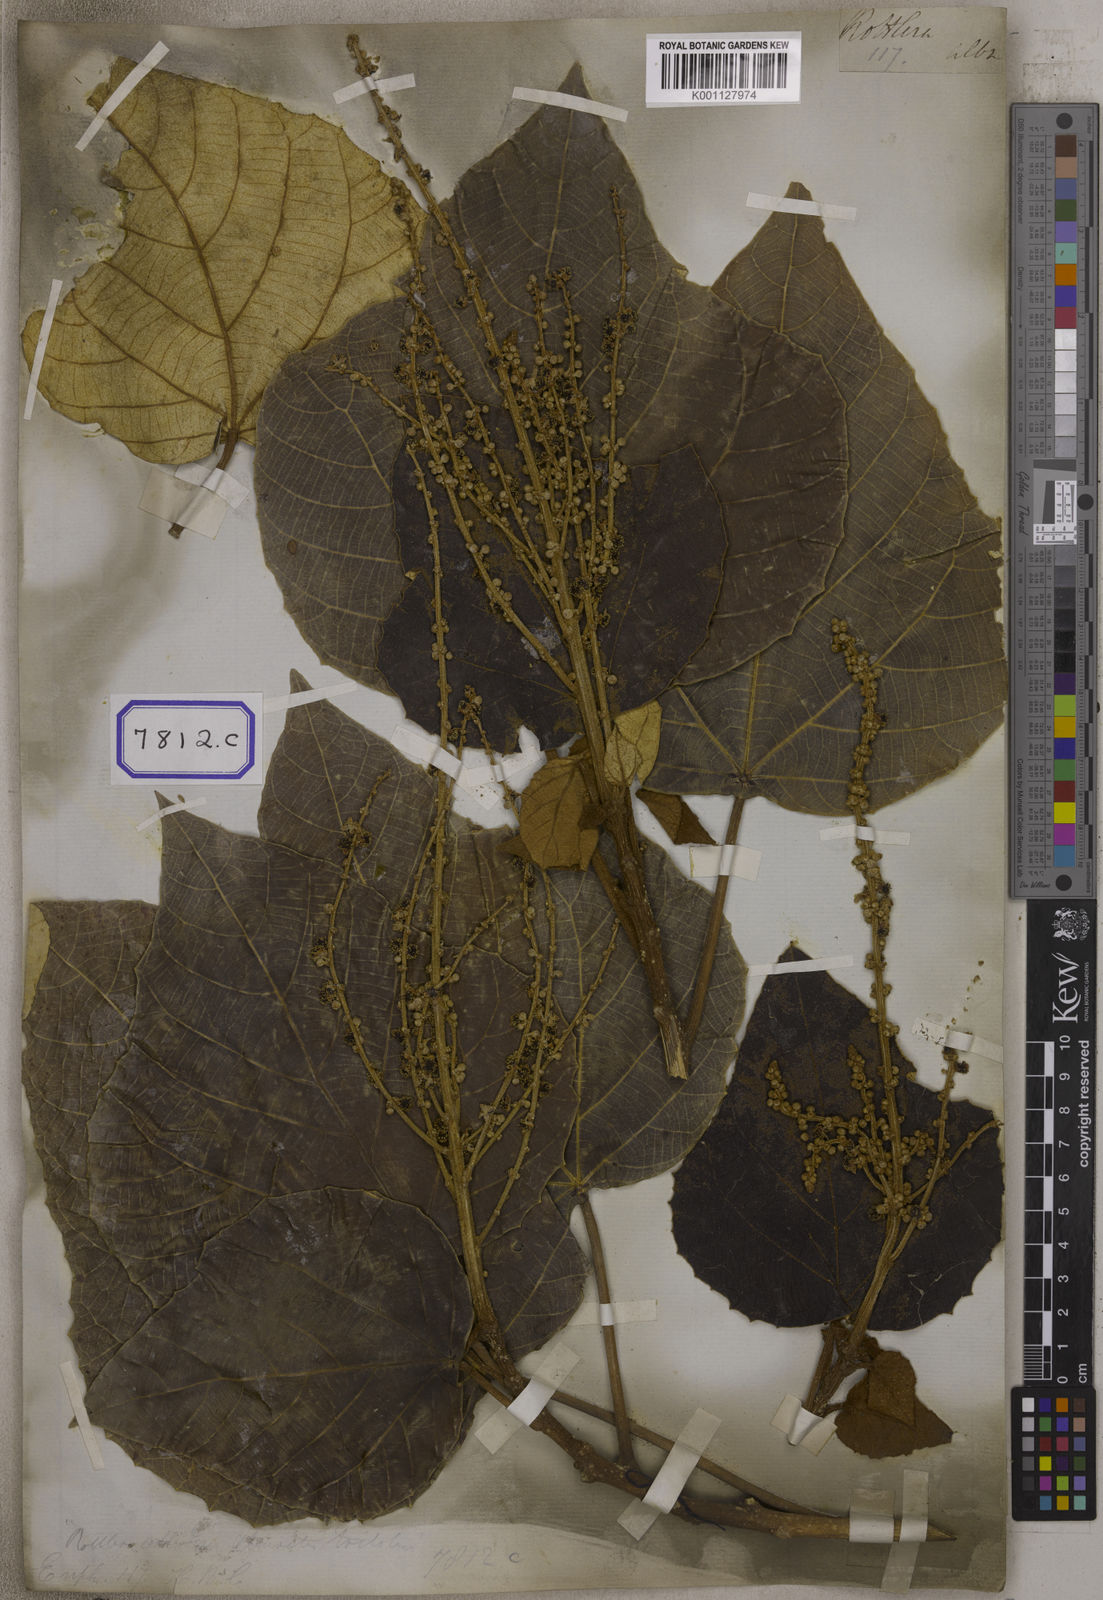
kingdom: Plantae
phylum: Tracheophyta
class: Magnoliopsida
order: Malpighiales
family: Euphorbiaceae
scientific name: Euphorbiaceae
